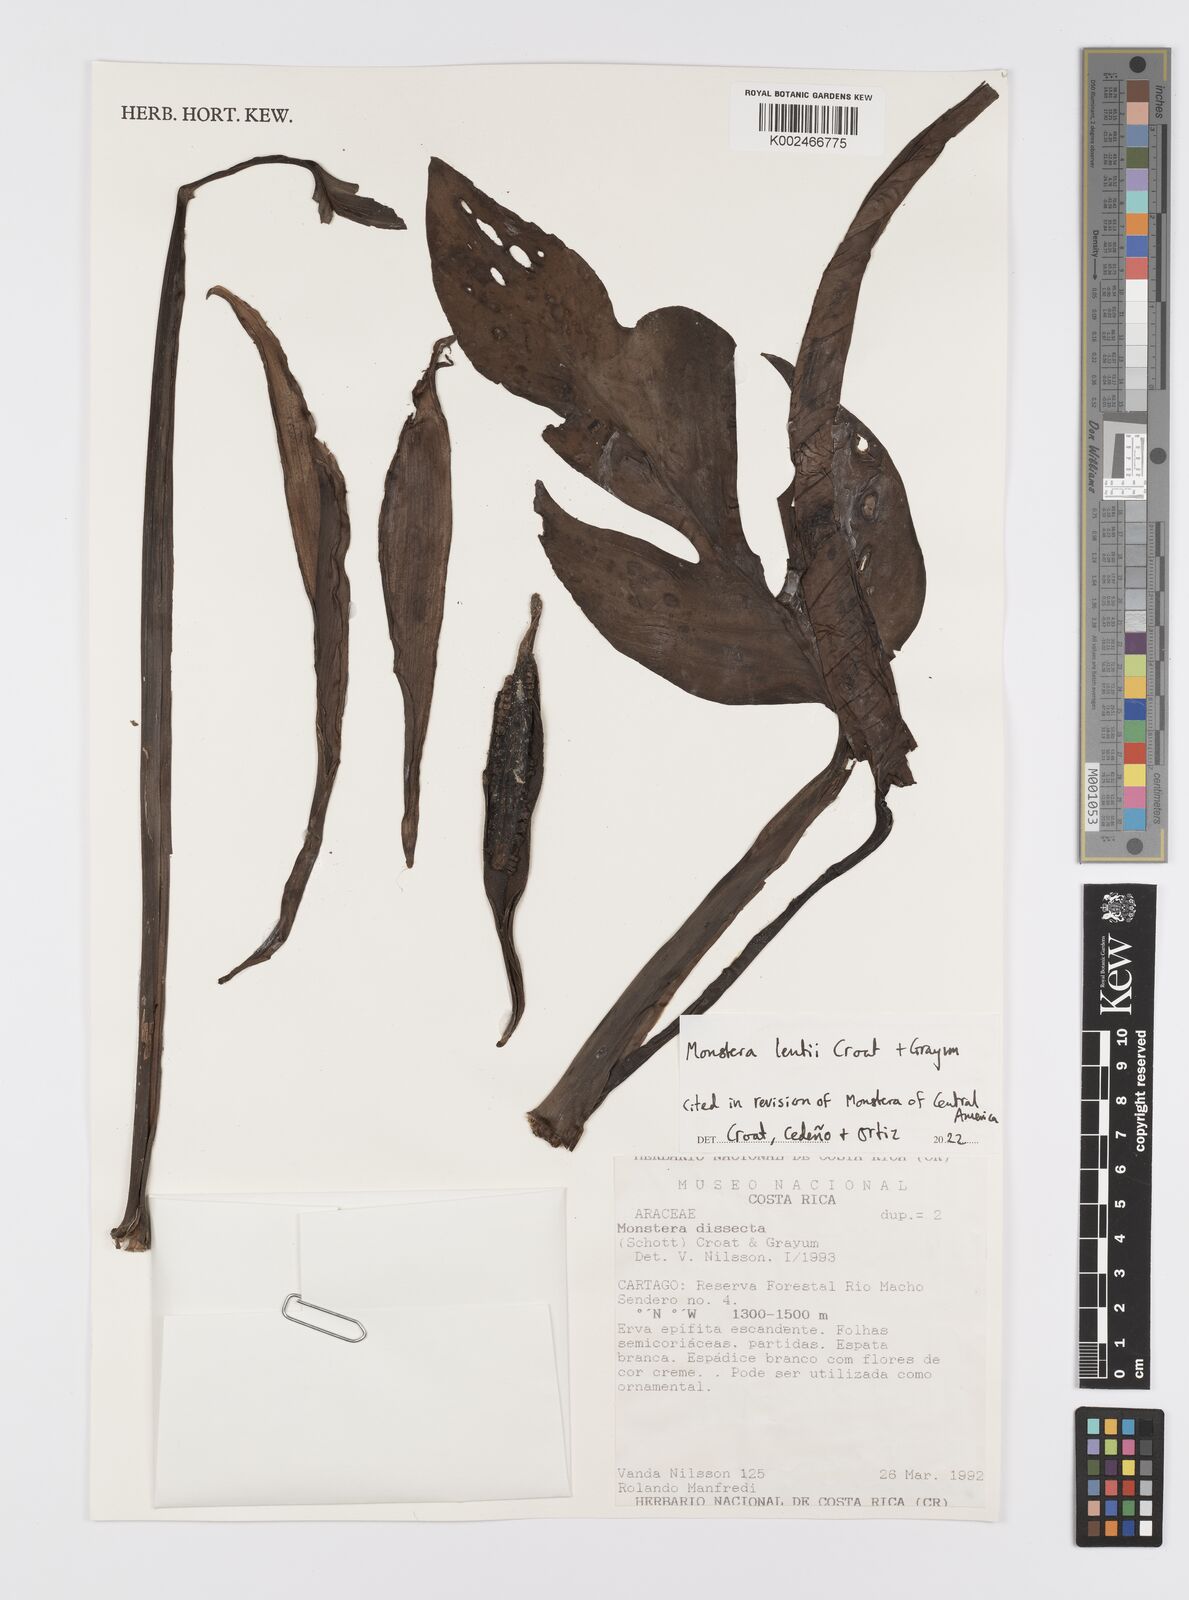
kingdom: Plantae
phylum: Tracheophyta
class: Liliopsida
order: Alismatales
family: Araceae
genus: Monstera
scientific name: Monstera lentii
